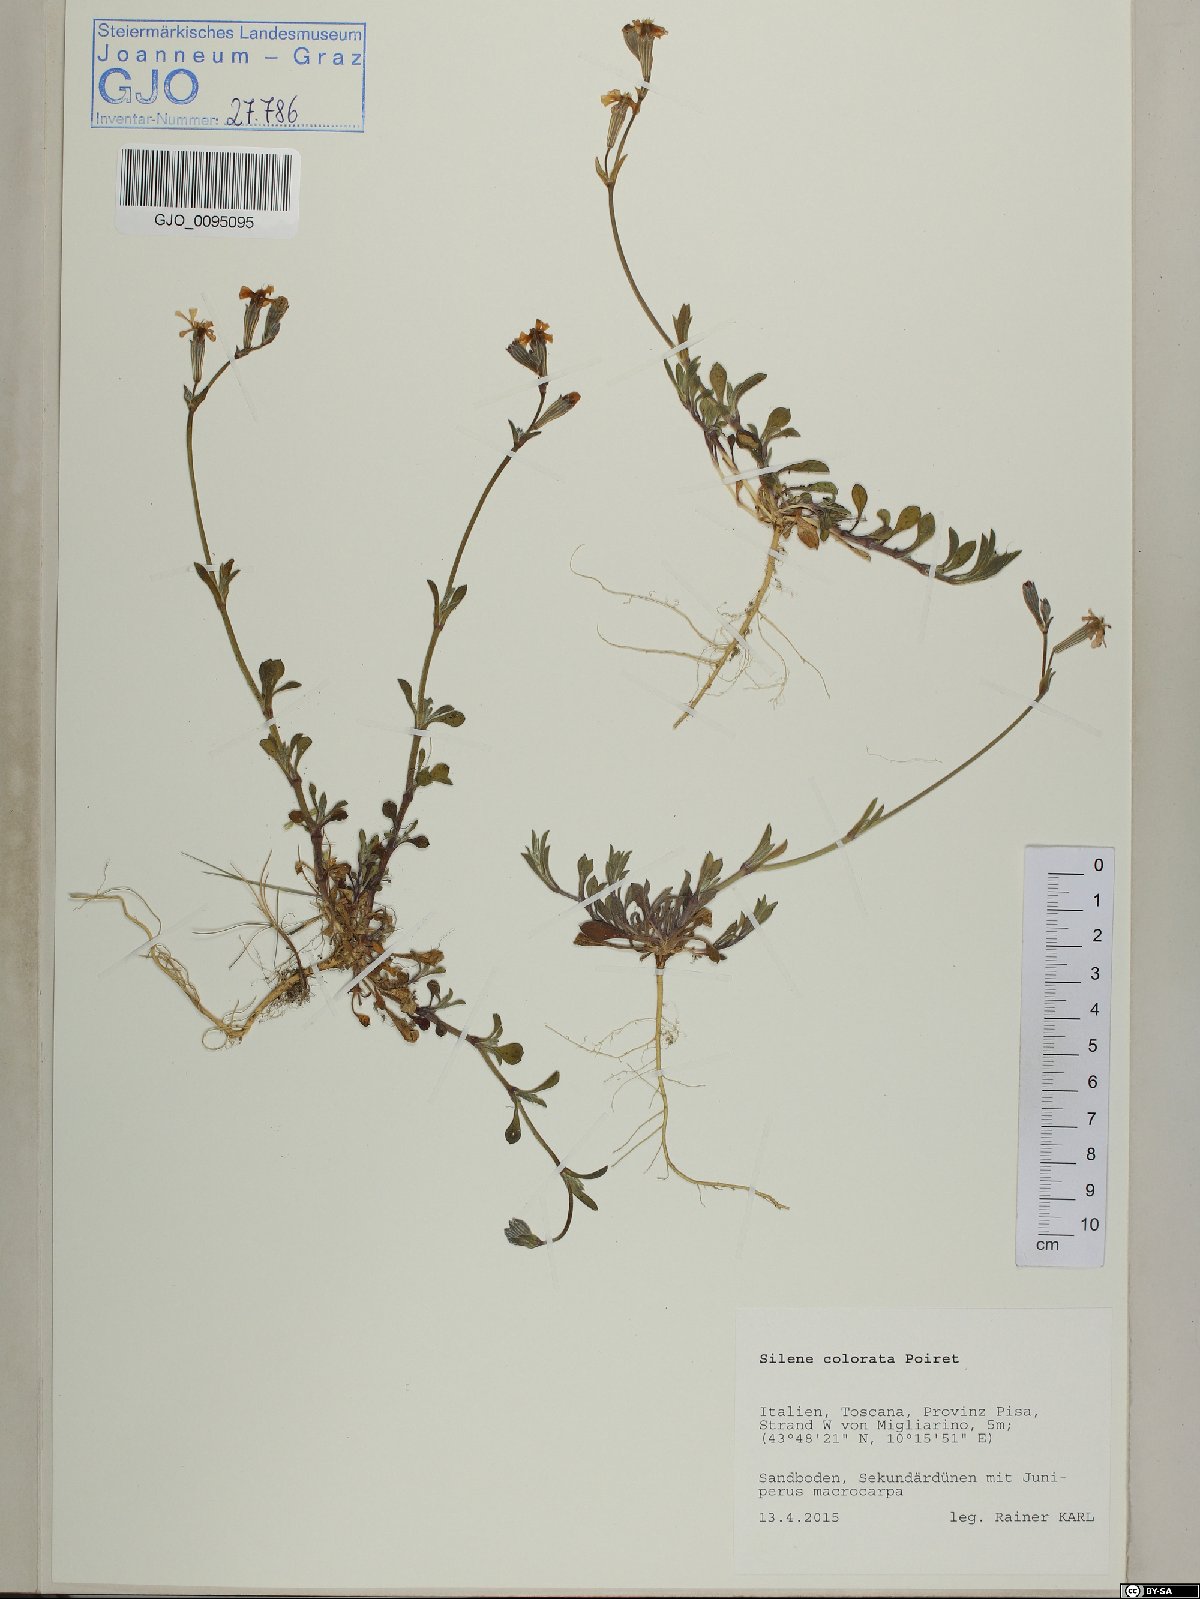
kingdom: Plantae
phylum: Tracheophyta
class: Magnoliopsida
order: Caryophyllales
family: Caryophyllaceae
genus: Silene
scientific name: Silene colorata
